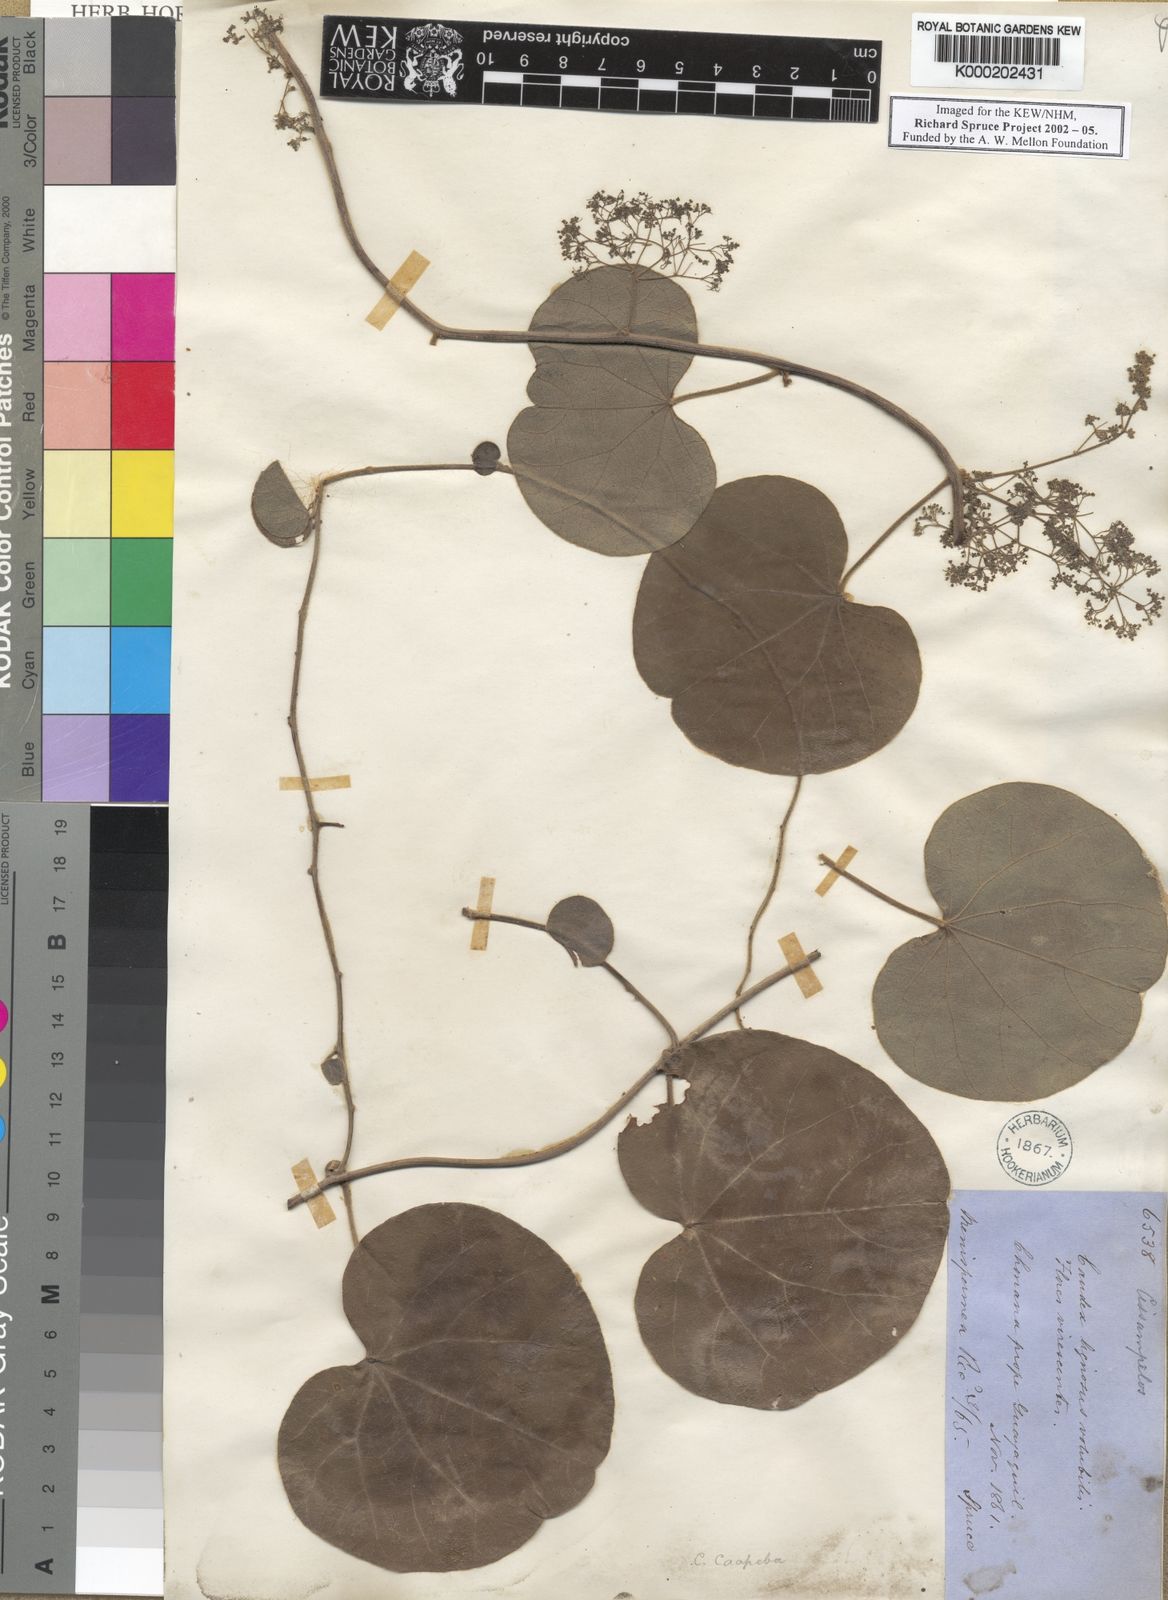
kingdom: Plantae
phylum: Tracheophyta
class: Magnoliopsida
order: Ranunculales
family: Menispermaceae
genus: Cissampelos
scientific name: Cissampelos pareira
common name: Velvetleaf
